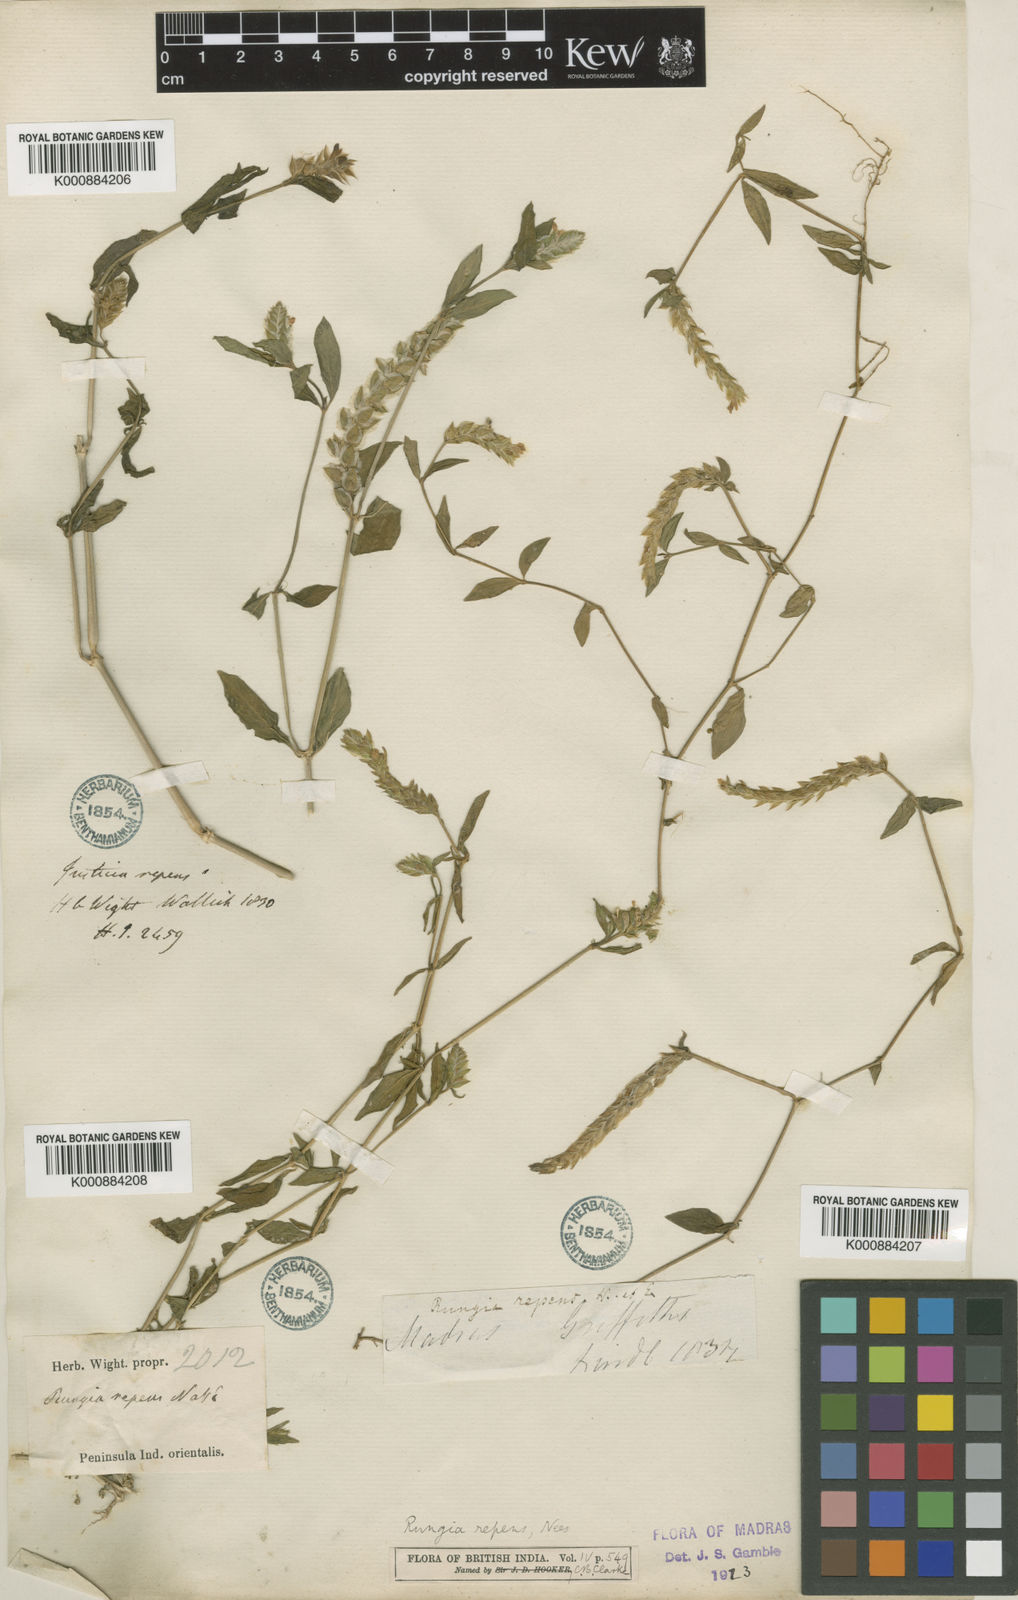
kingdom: Plantae
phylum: Tracheophyta
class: Magnoliopsida
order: Lamiales
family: Acanthaceae
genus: Justicia
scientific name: Justicia
